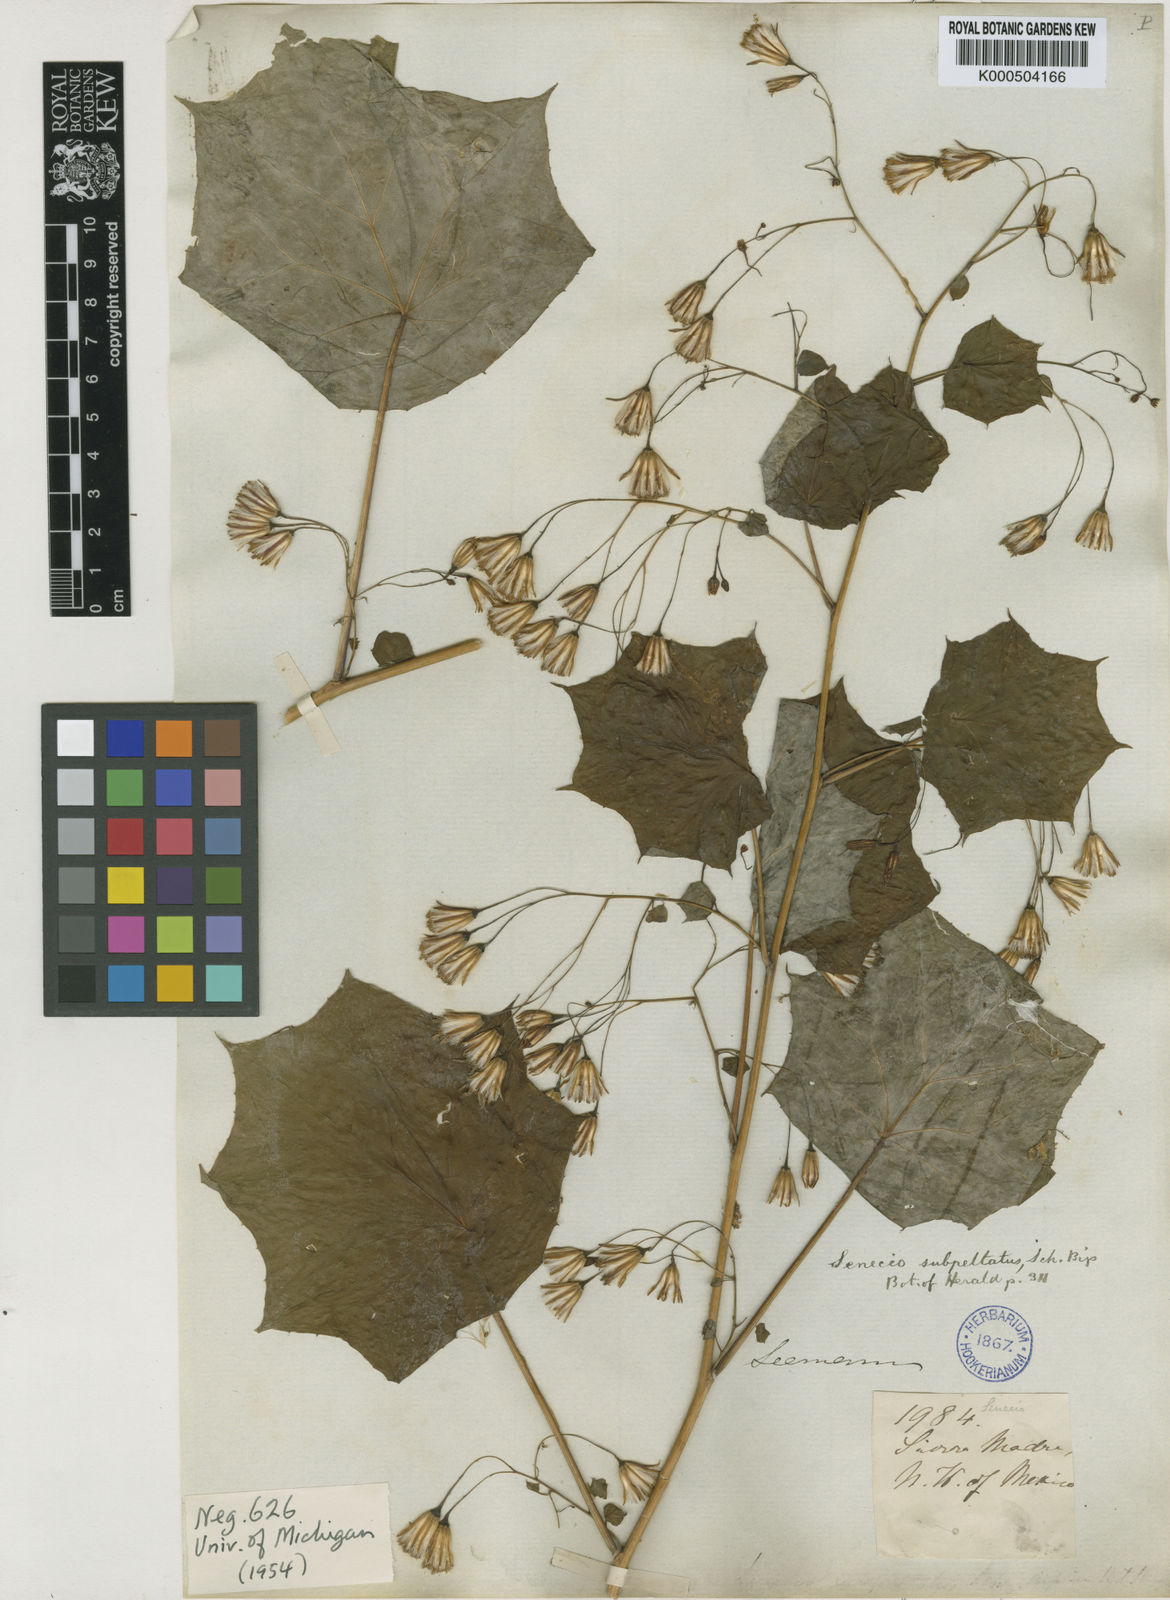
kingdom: Plantae
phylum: Tracheophyta
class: Magnoliopsida
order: Asterales
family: Asteraceae
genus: Roldana
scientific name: Roldana subpeltata
